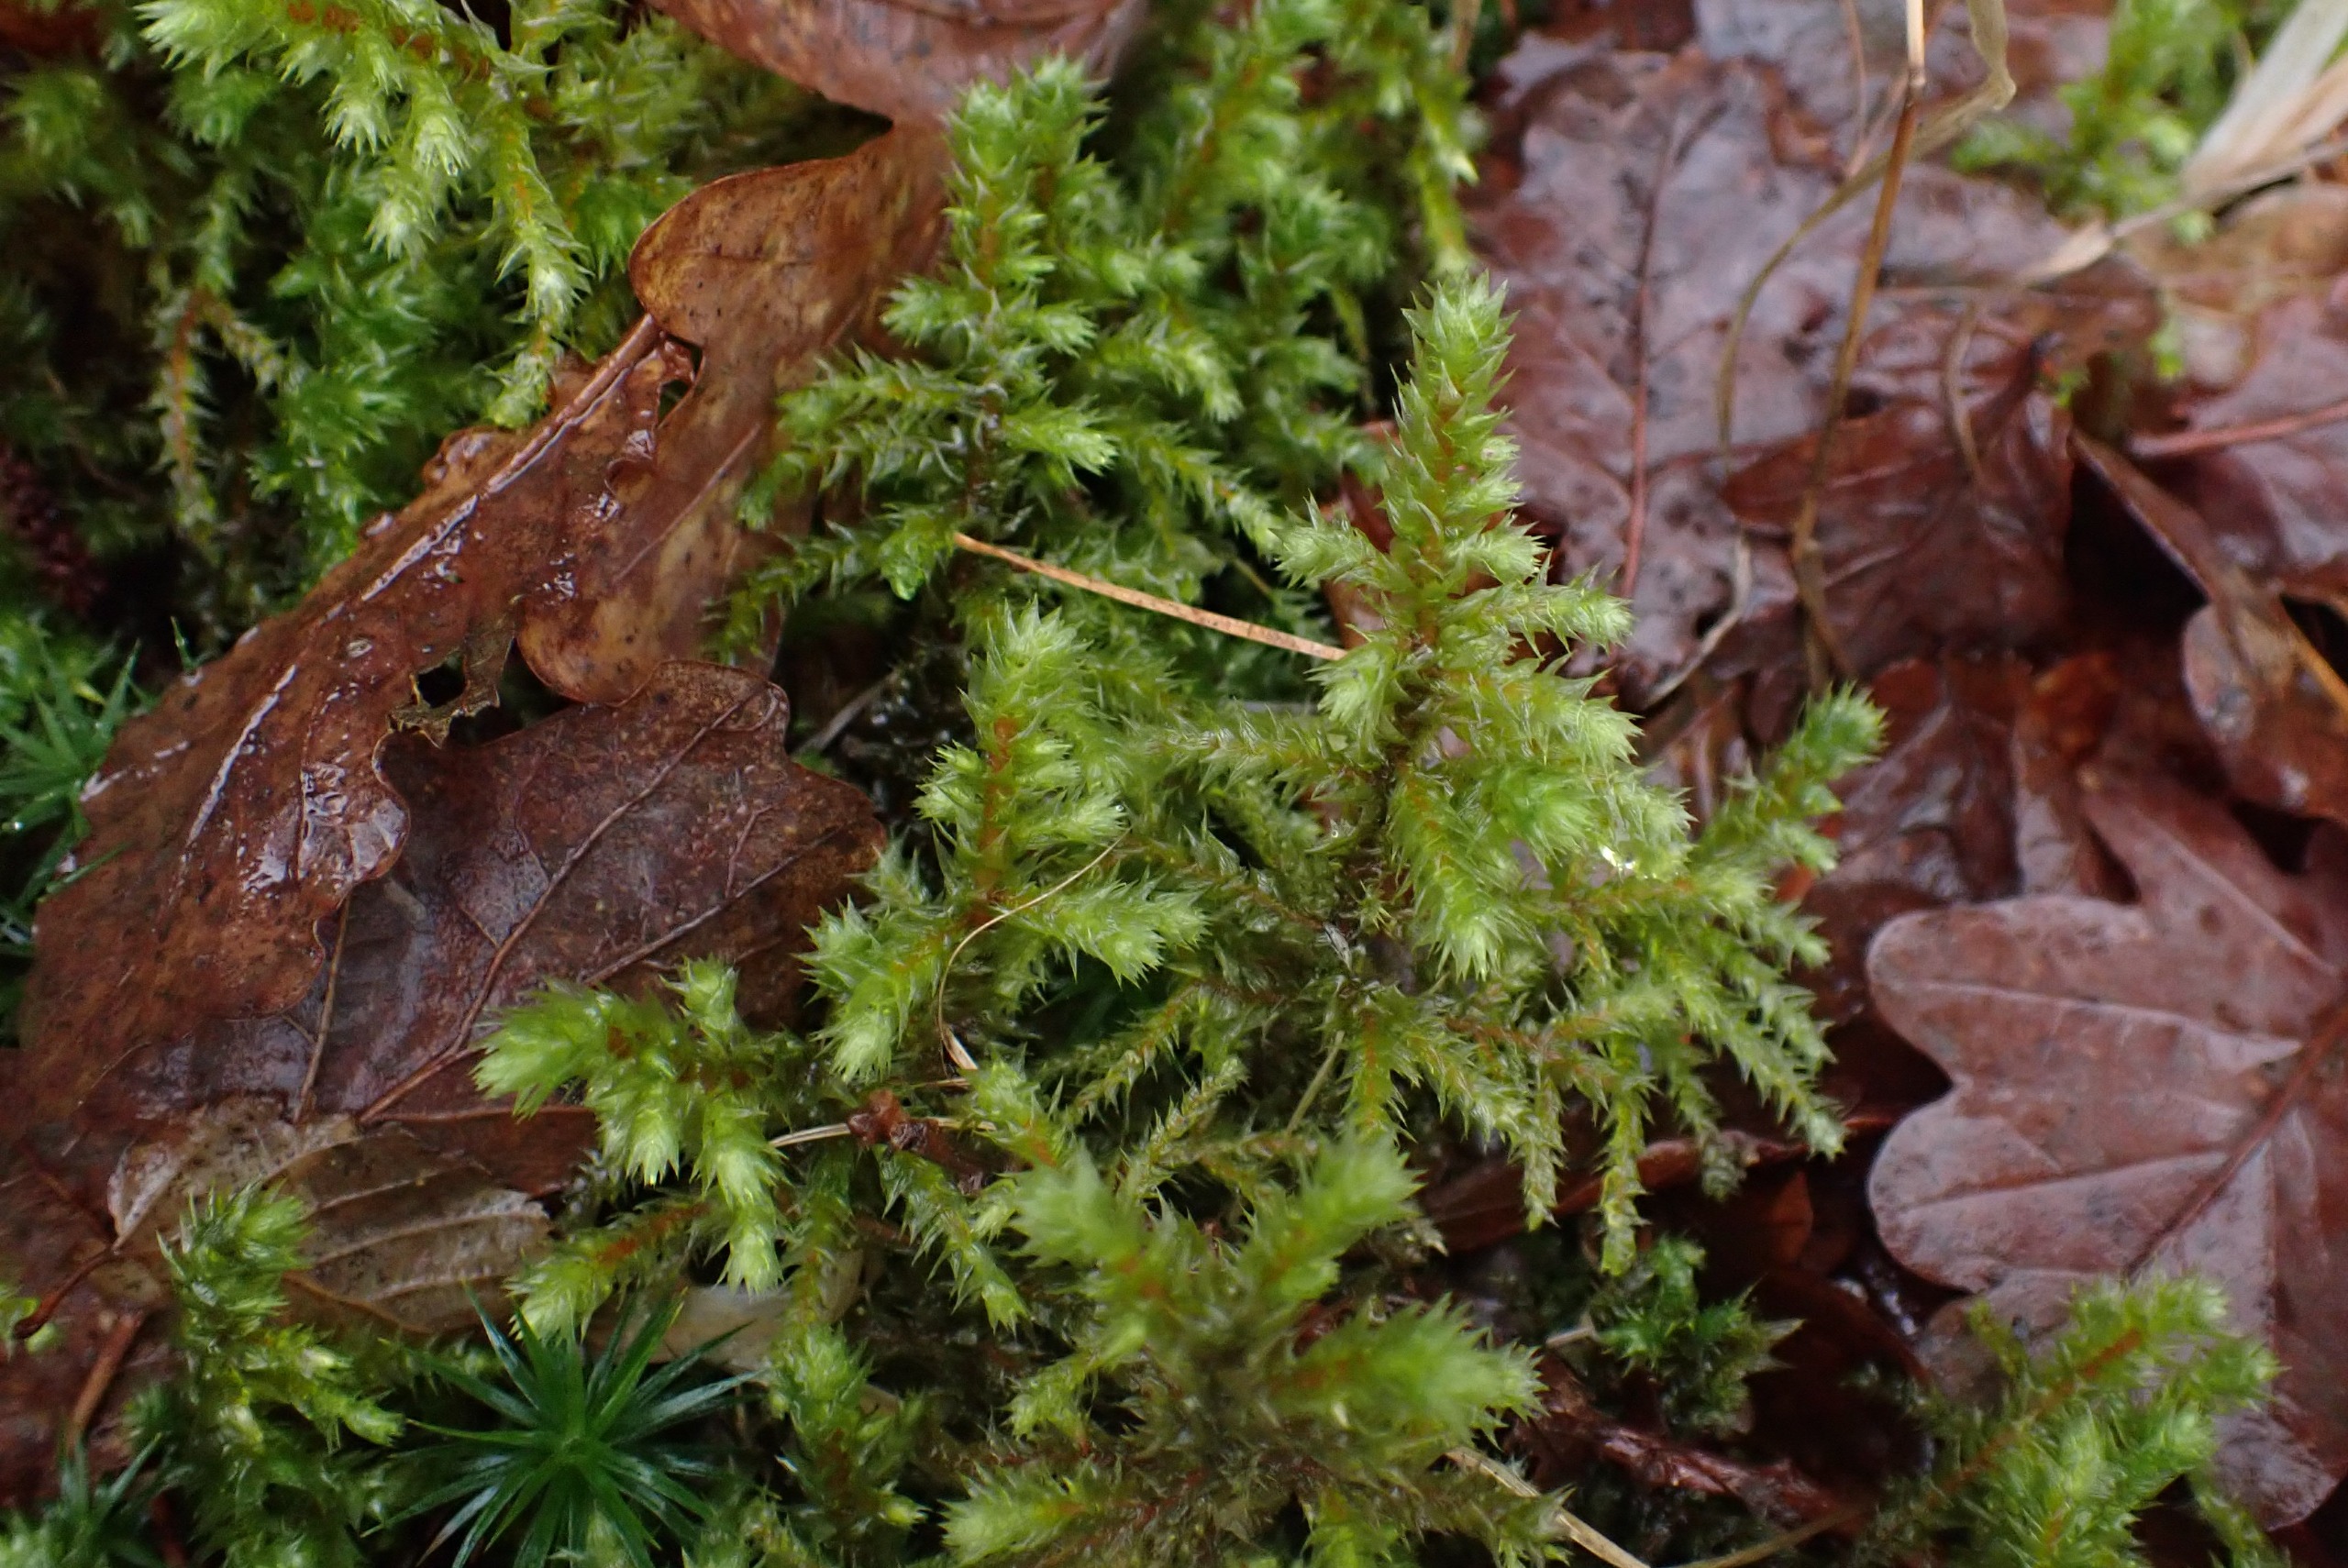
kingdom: Plantae
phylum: Bryophyta
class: Bryopsida
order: Hypnales
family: Hylocomiaceae
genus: Hylocomiadelphus
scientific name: Hylocomiadelphus triquetrus
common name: Stor kransemos
